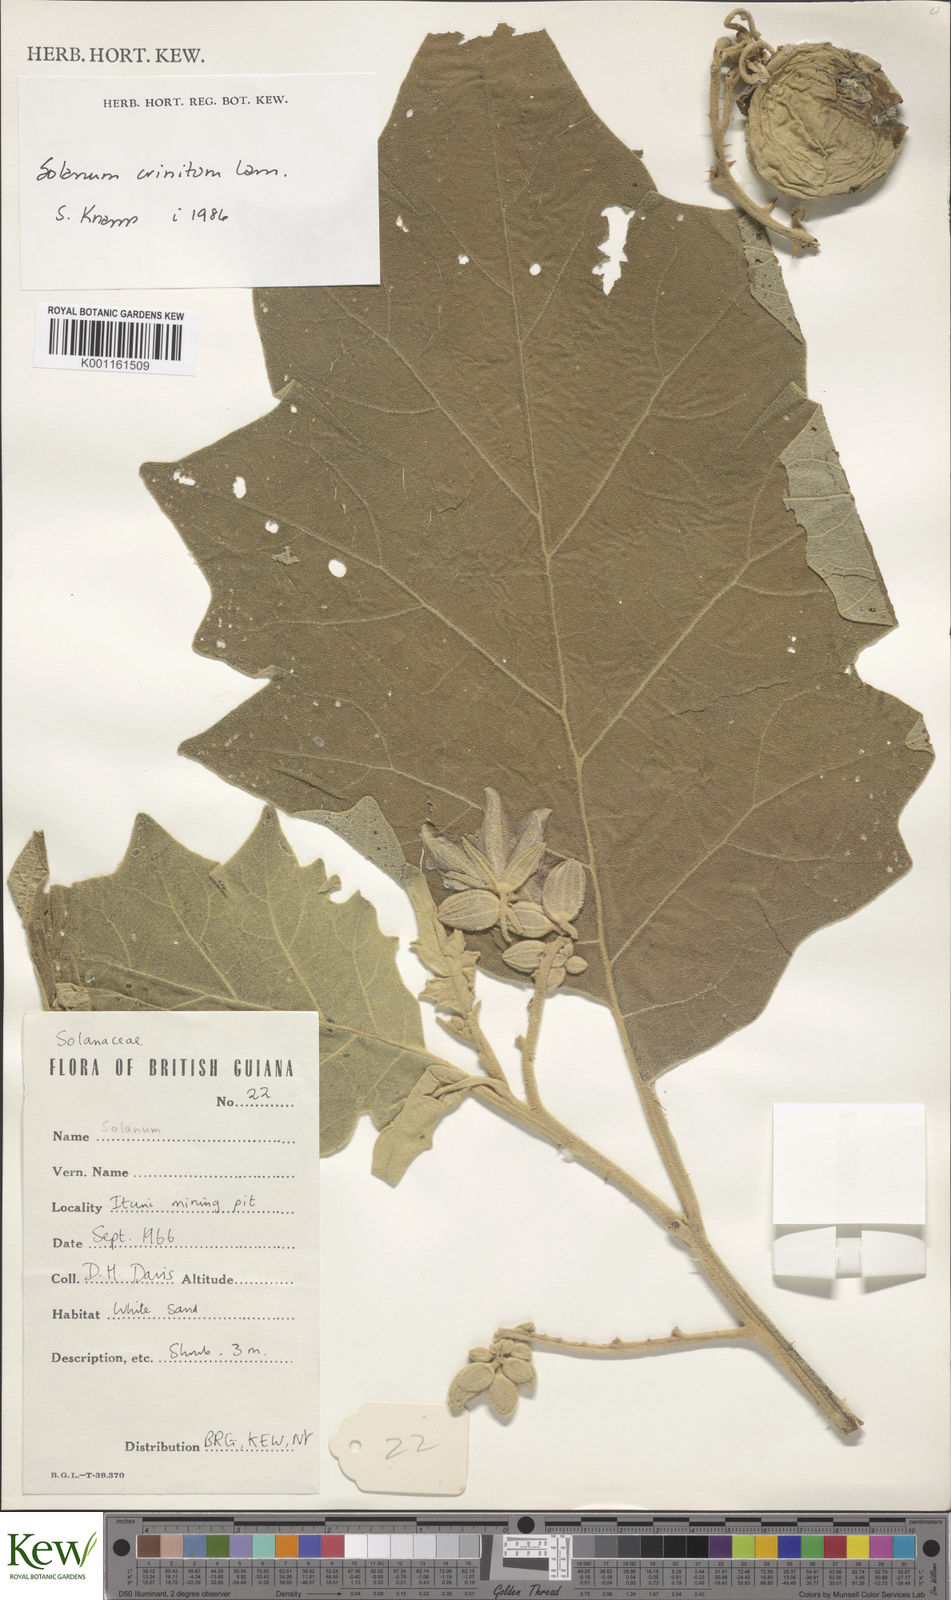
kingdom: Plantae
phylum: Tracheophyta
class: Magnoliopsida
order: Solanales
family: Solanaceae
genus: Solanum
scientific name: Solanum crinitum
